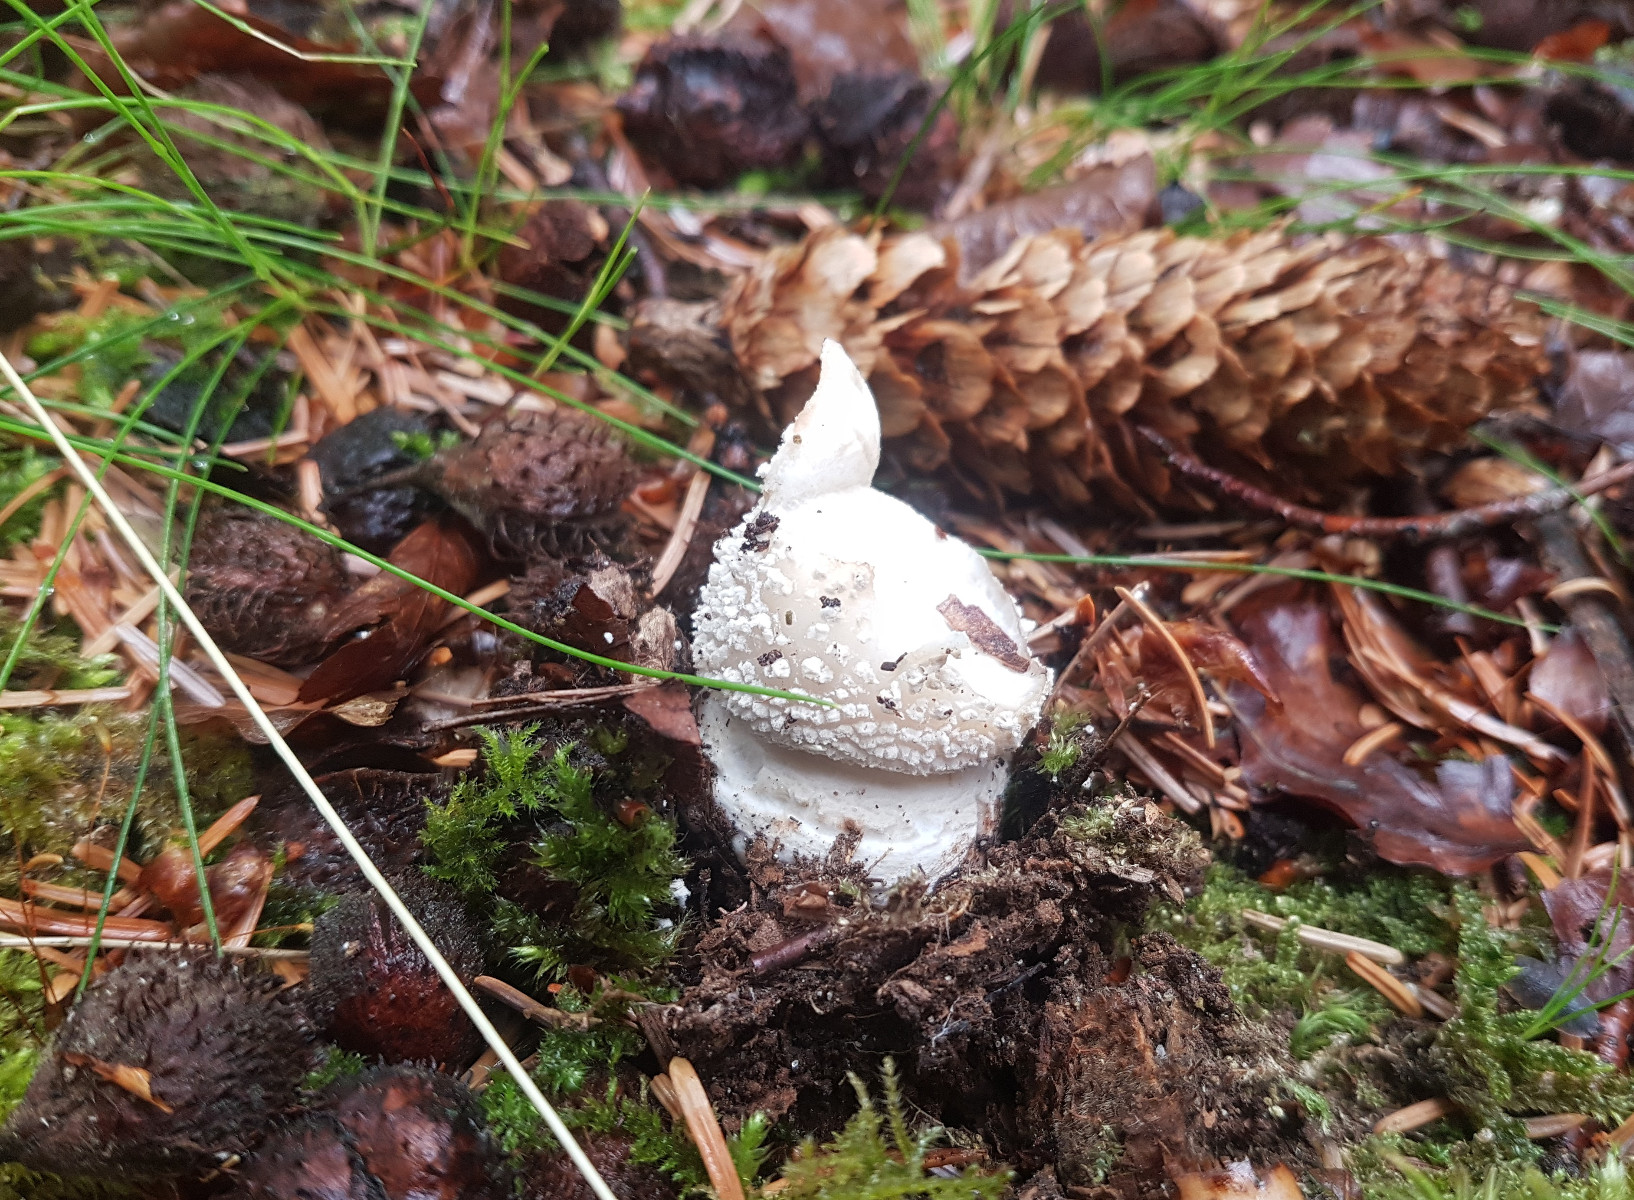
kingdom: Fungi
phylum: Basidiomycota
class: Agaricomycetes
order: Agaricales
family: Amanitaceae
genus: Amanita
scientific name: Amanita
